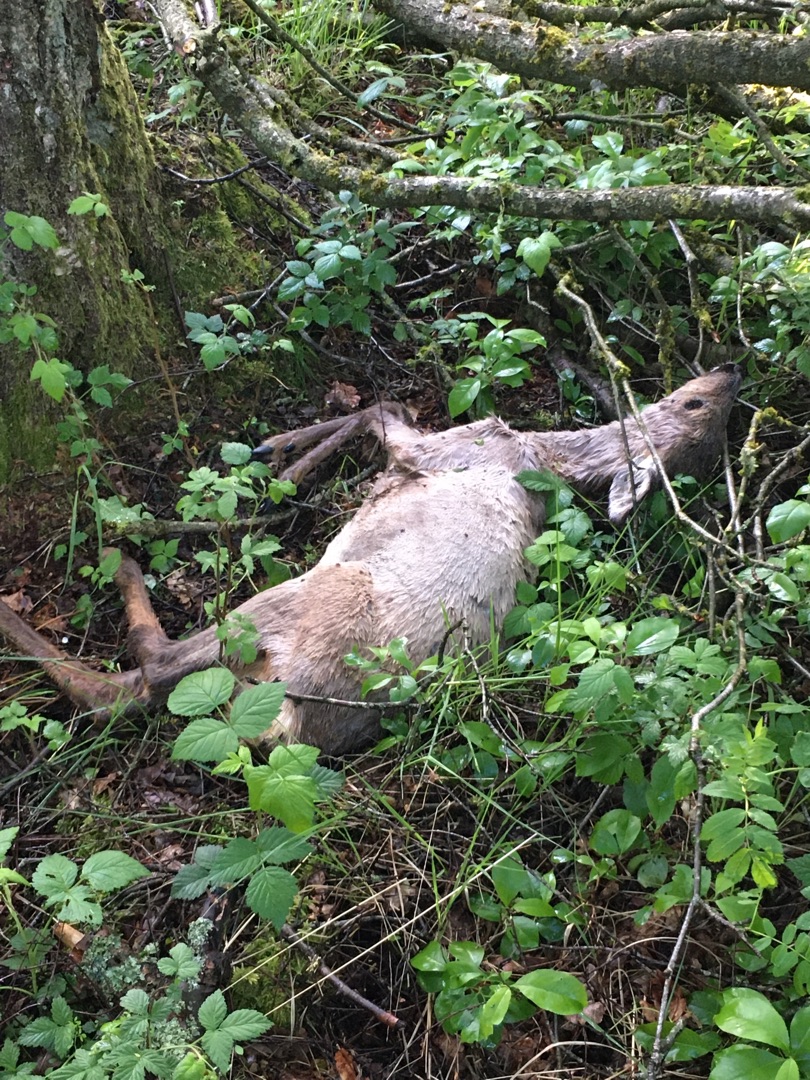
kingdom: Animalia
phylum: Chordata
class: Mammalia
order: Artiodactyla
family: Cervidae
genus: Capreolus
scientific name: Capreolus capreolus
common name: Rådyr
